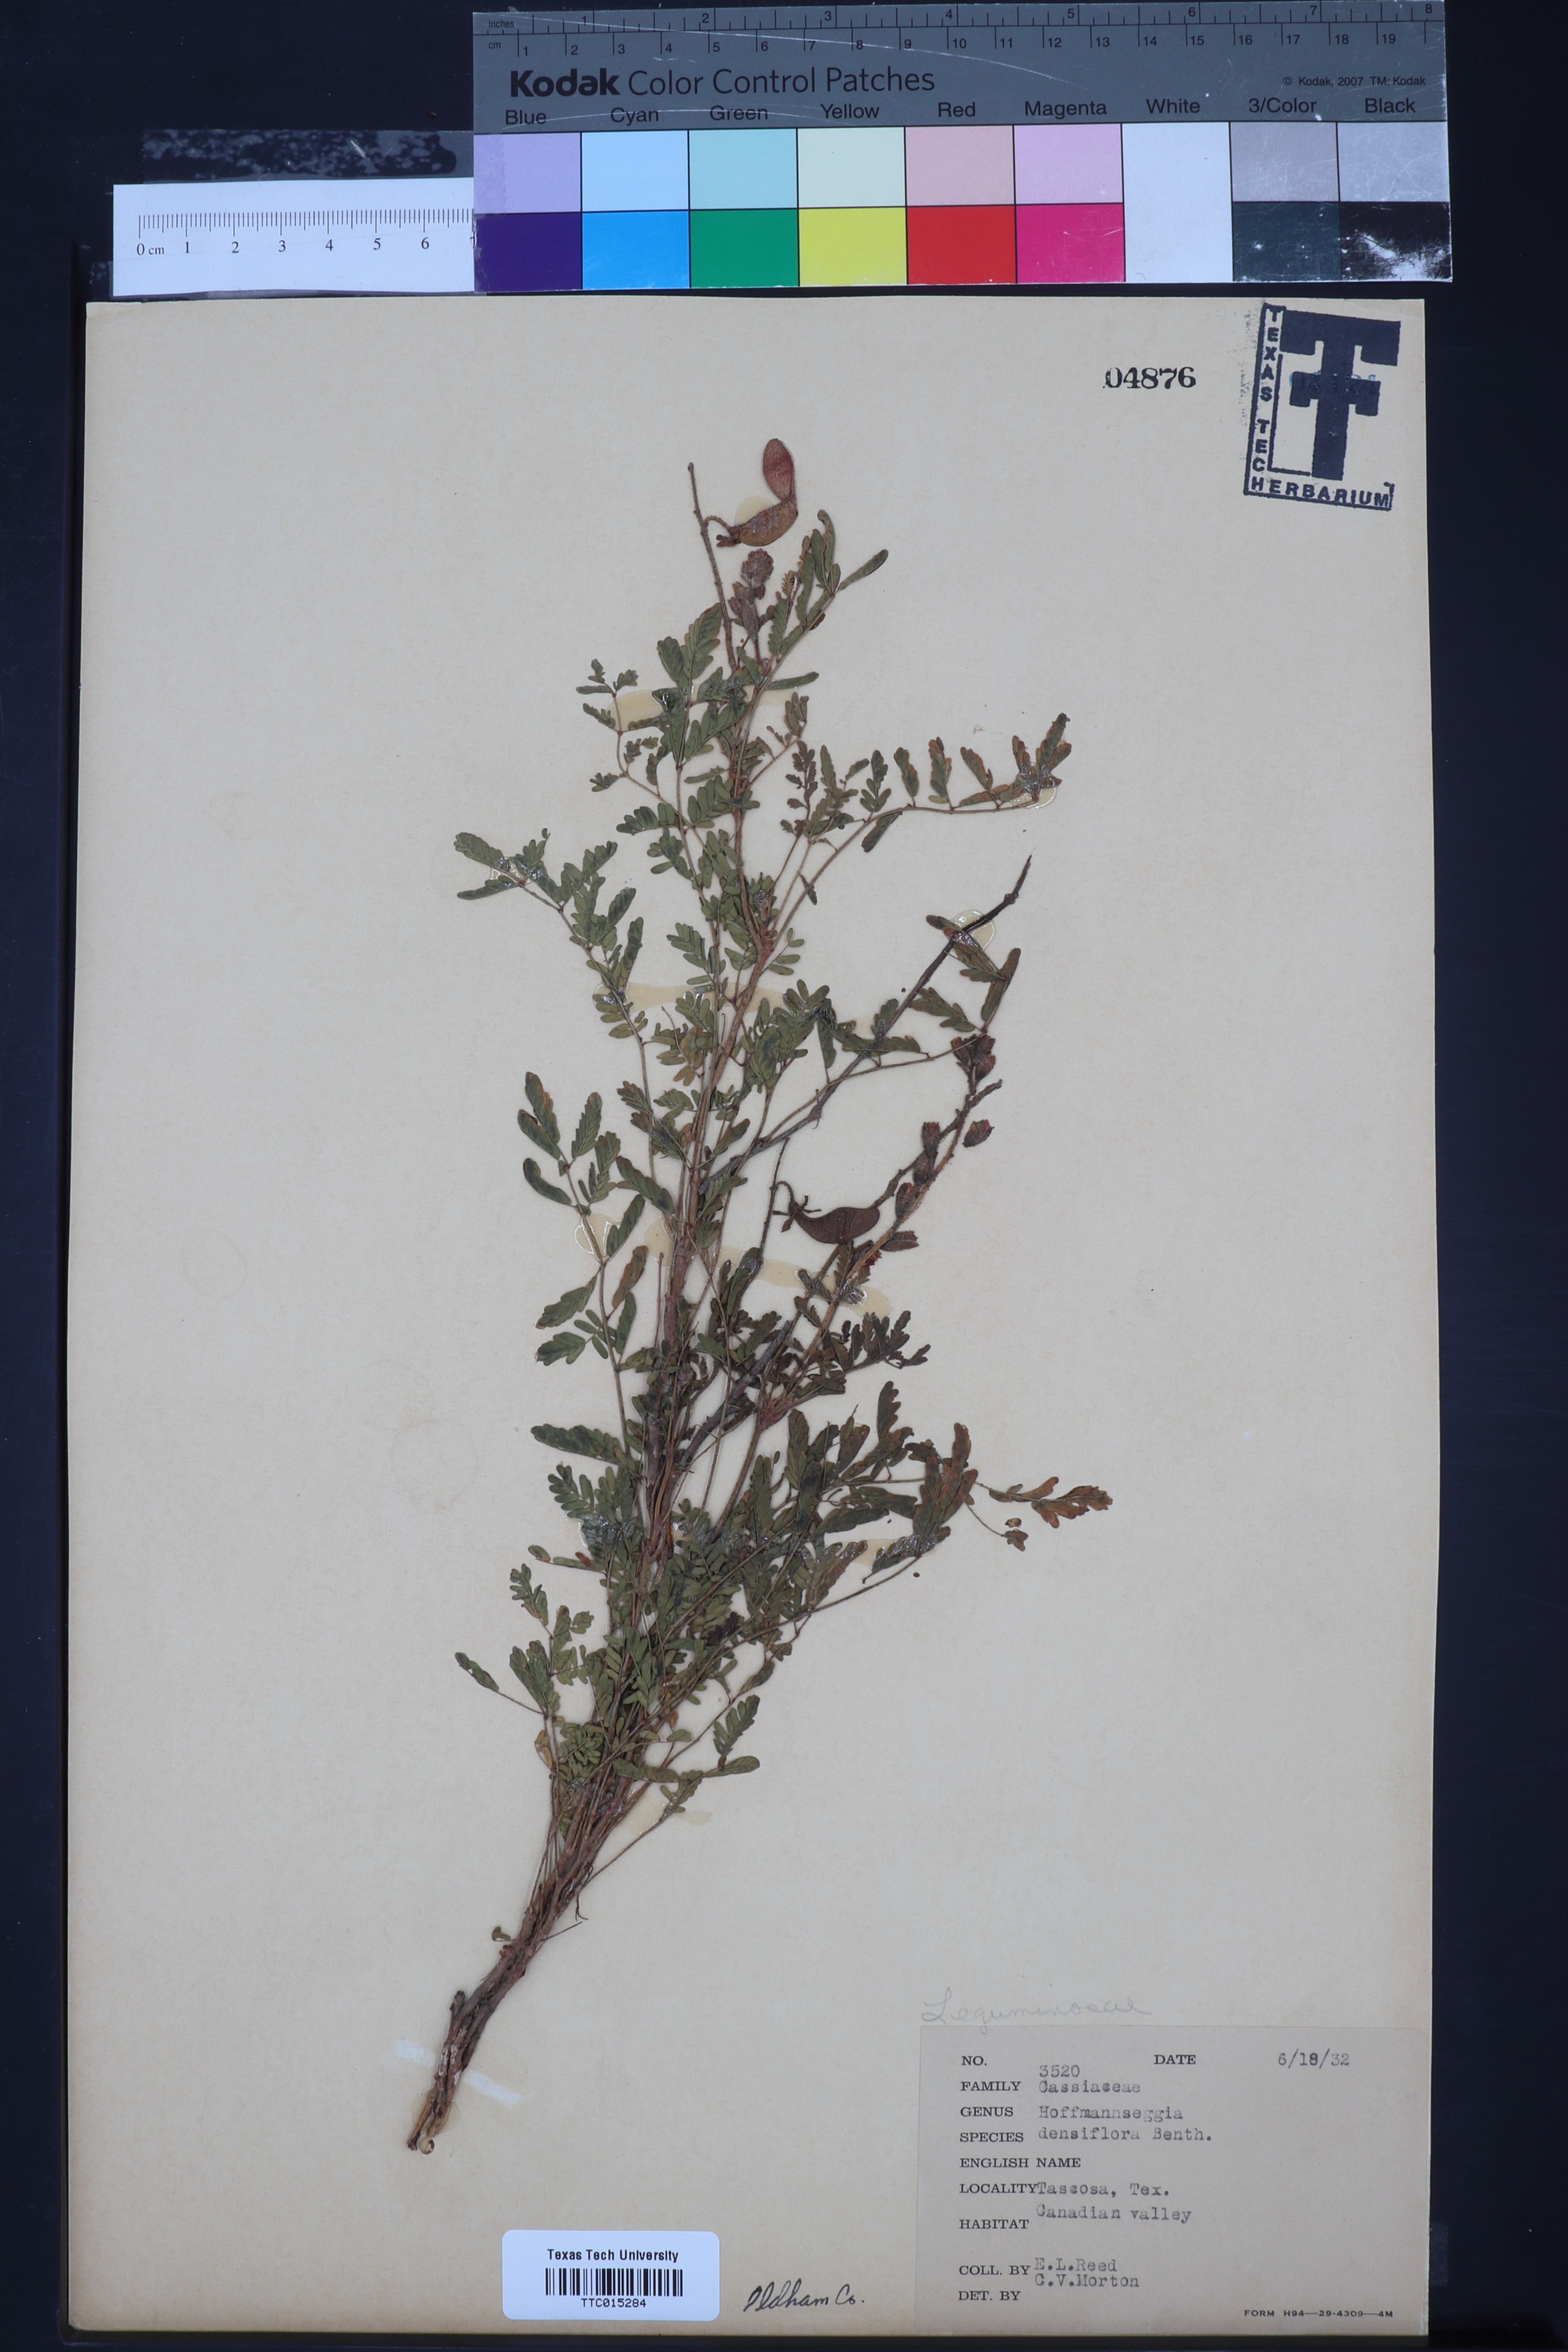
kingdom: Plantae
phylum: Tracheophyta
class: Magnoliopsida
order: Fabales
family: Fabaceae
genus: Hoffmannseggia
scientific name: Hoffmannseggia glauca
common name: Pignut
